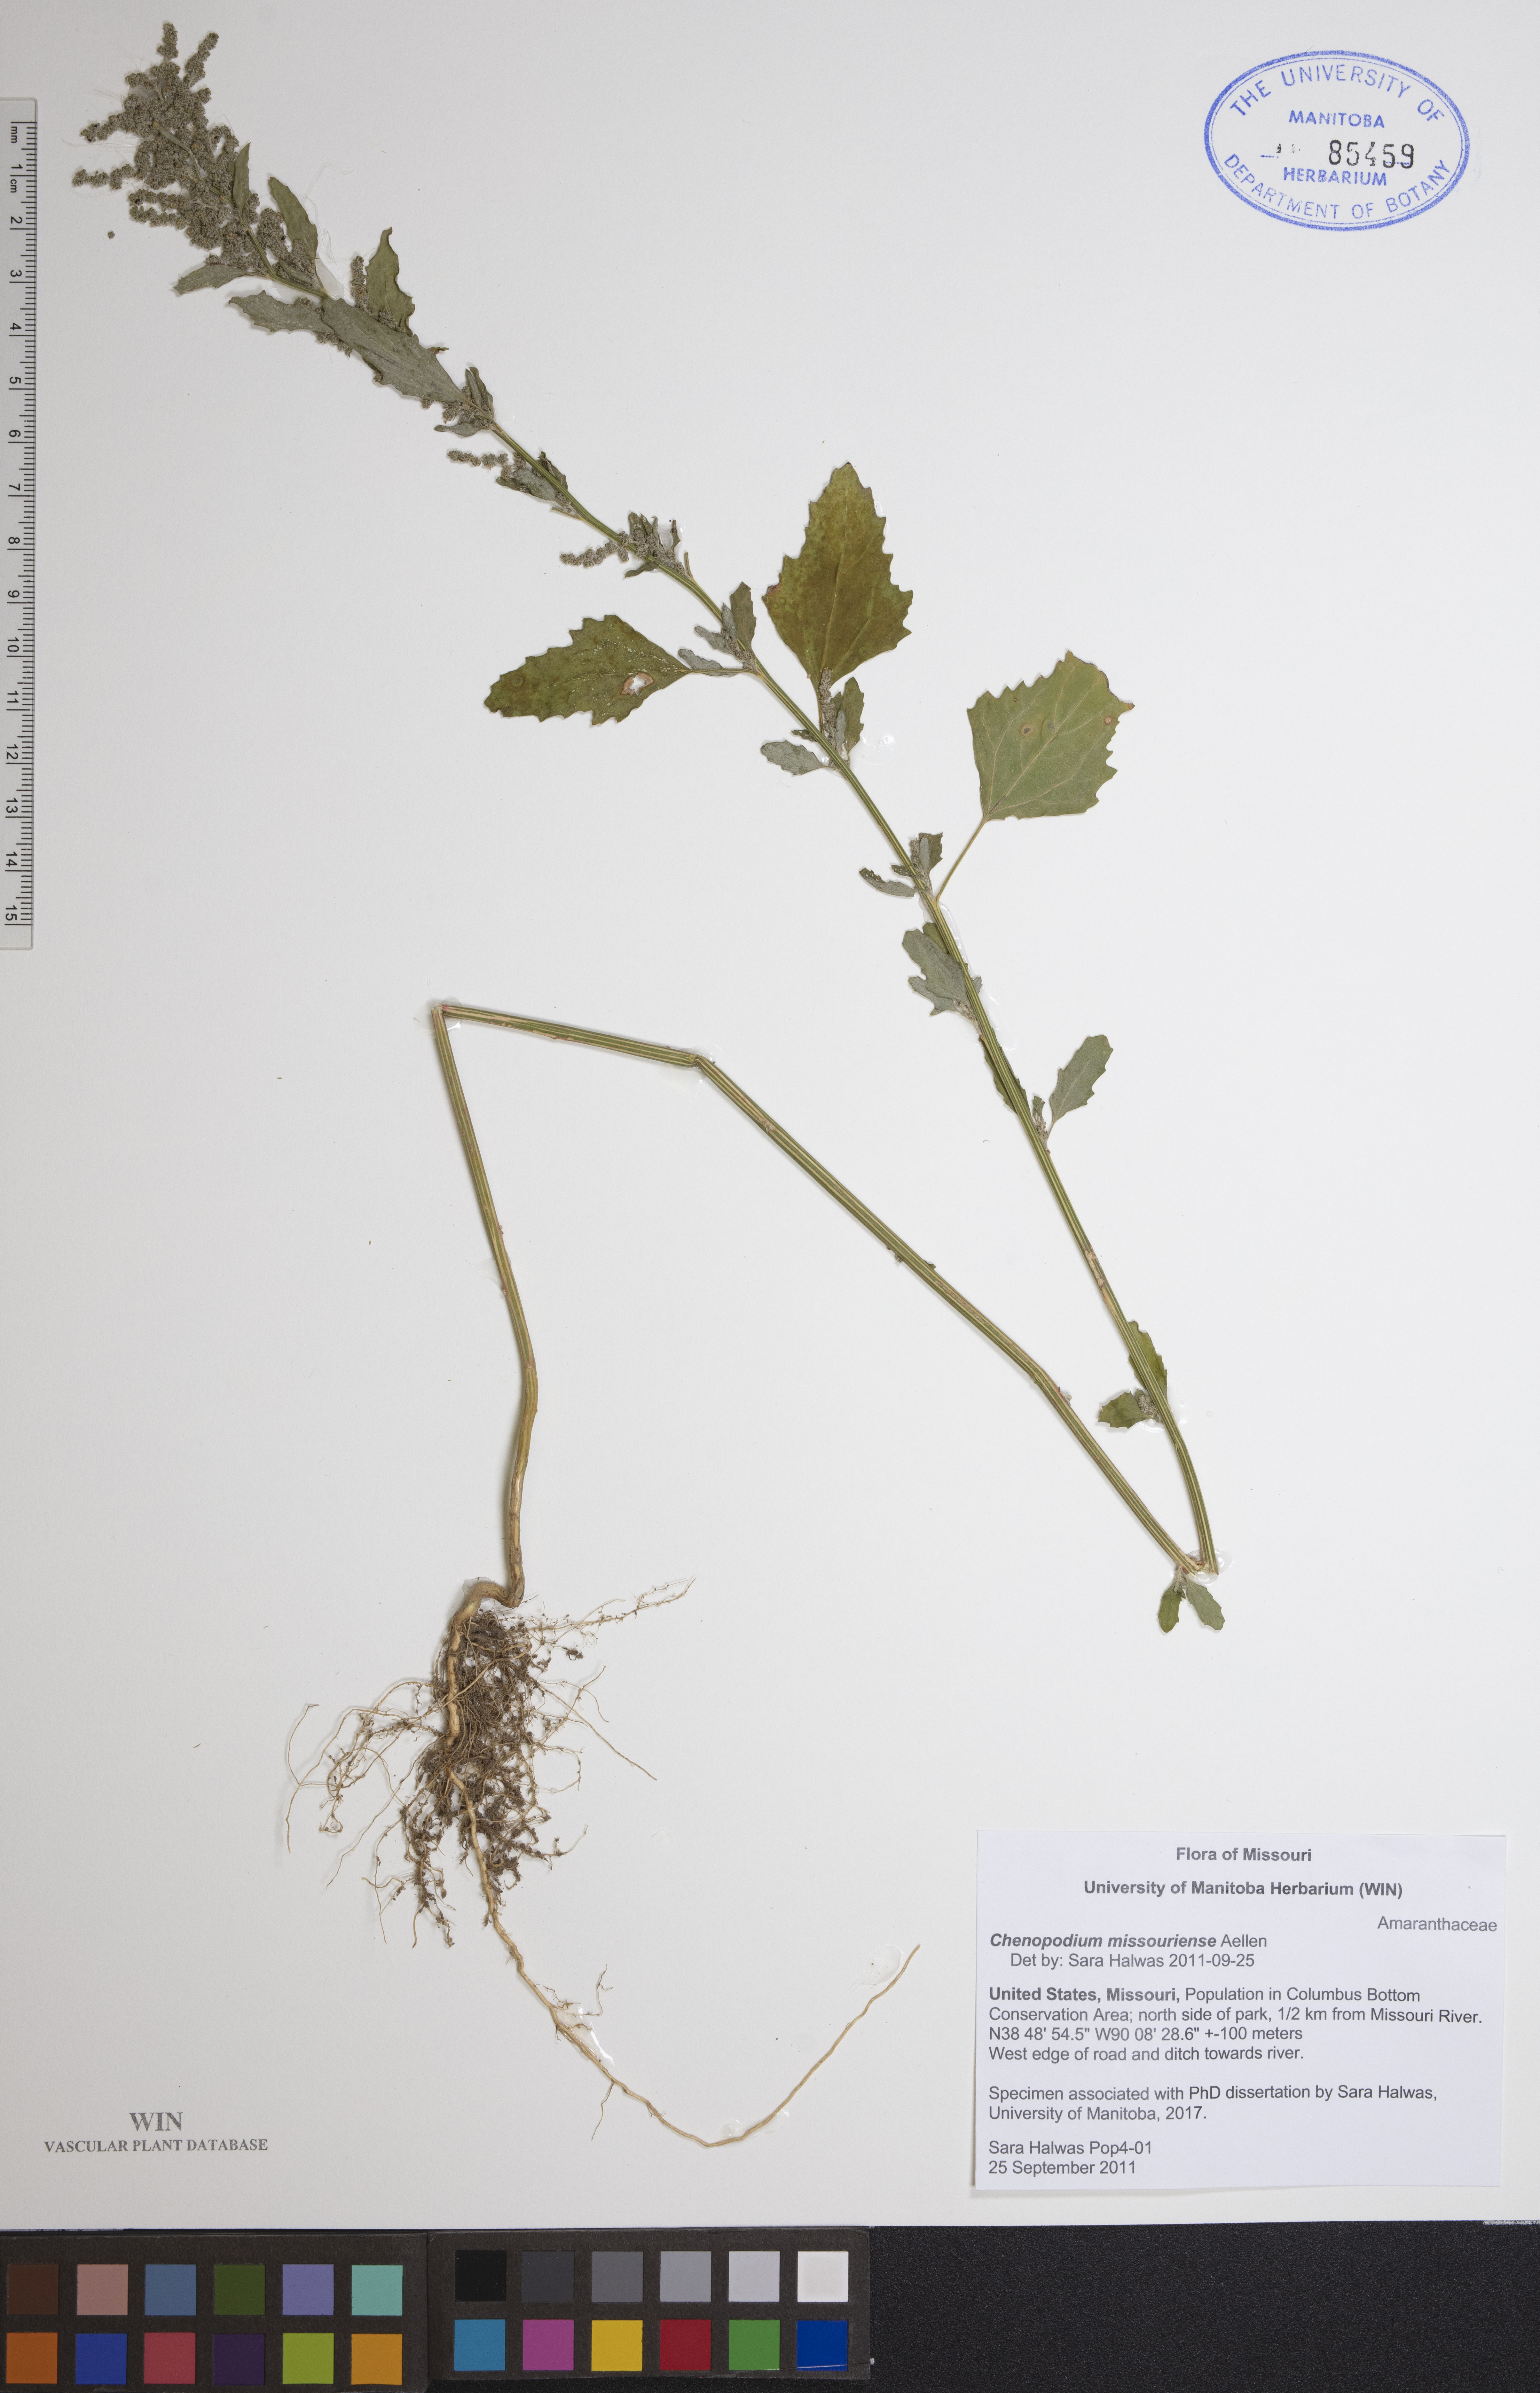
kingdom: Plantae
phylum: Tracheophyta
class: Magnoliopsida
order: Caryophyllales
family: Amaranthaceae
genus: Chenopodium
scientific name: Chenopodium album
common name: Fat-hen
